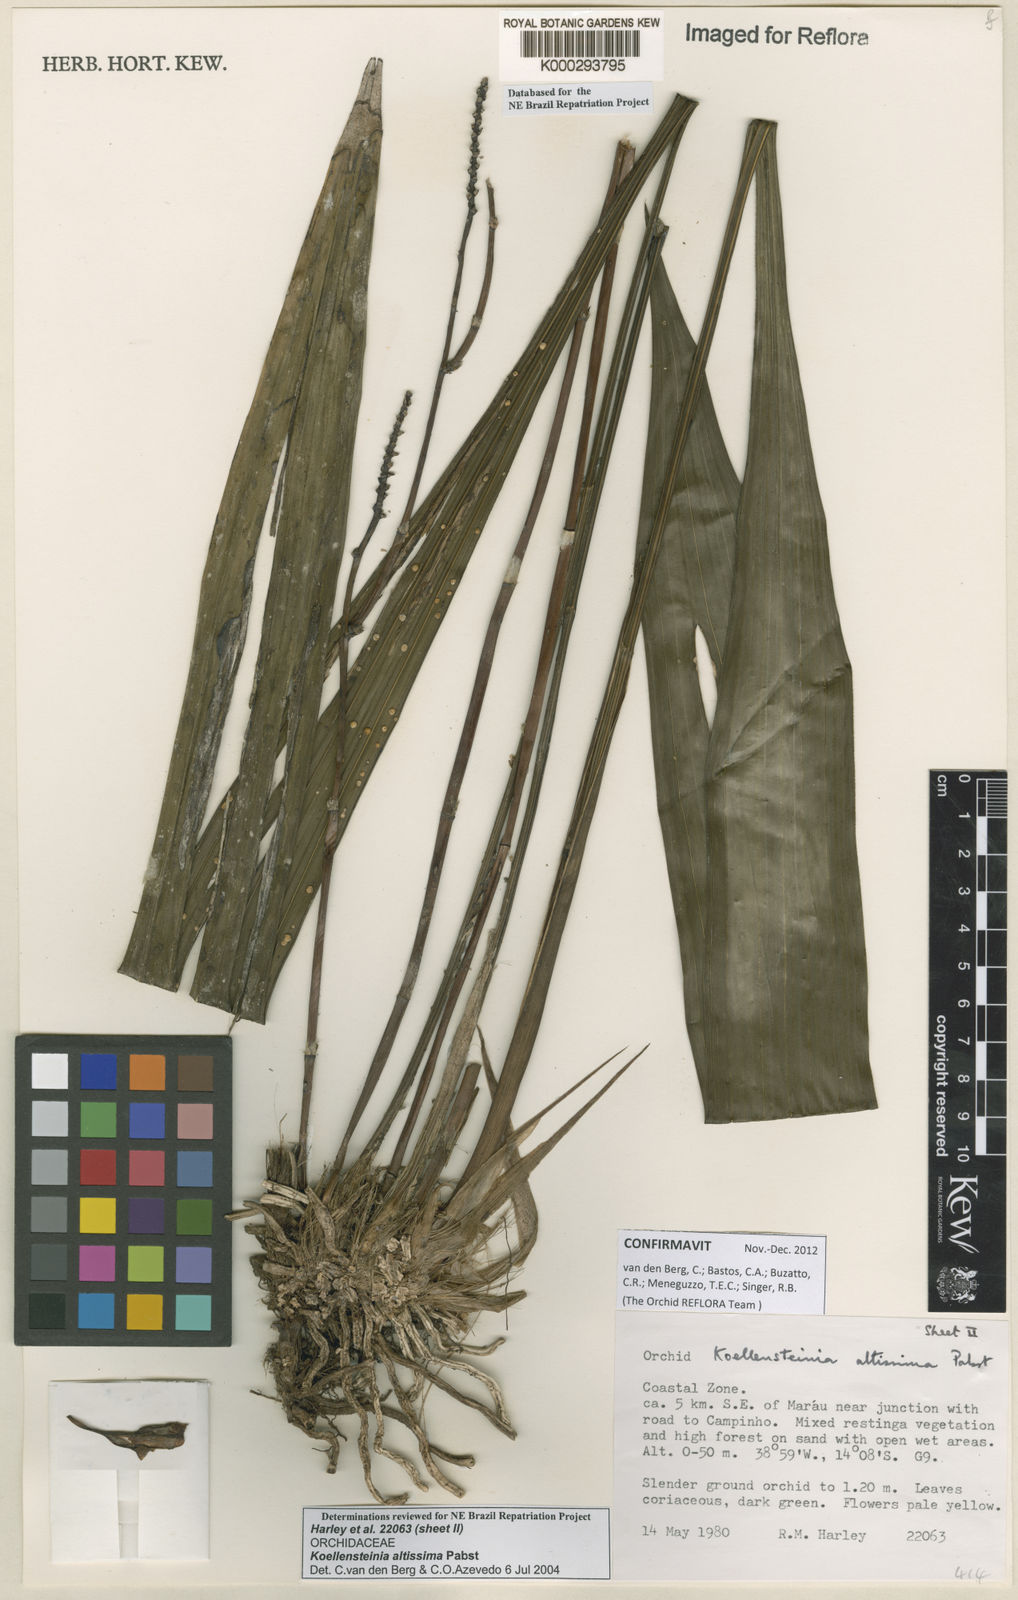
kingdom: Plantae
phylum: Tracheophyta
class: Liliopsida
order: Asparagales
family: Orchidaceae
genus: Koellensteinia
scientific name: Koellensteinia florida
